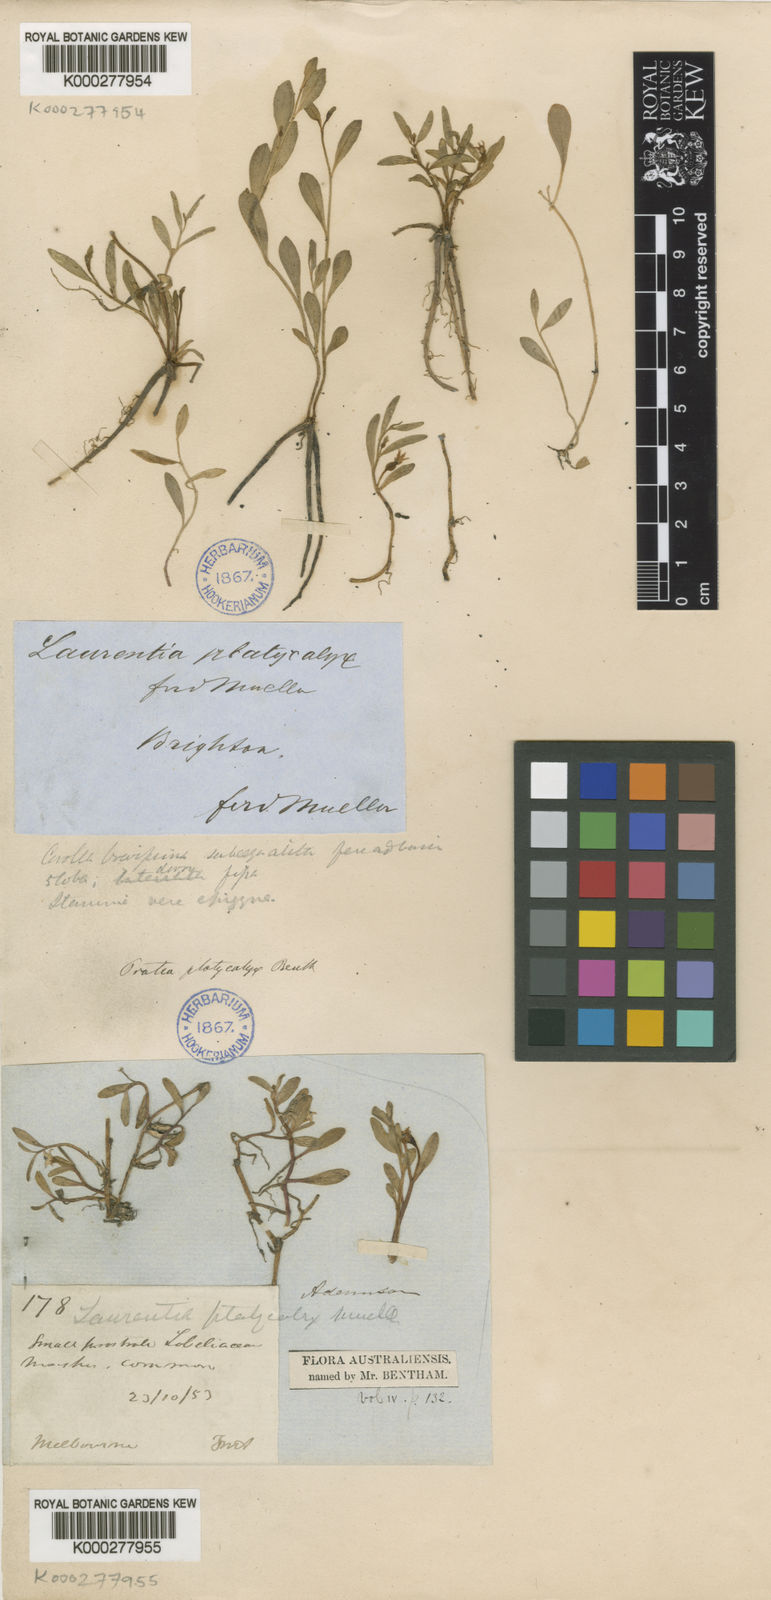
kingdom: Plantae
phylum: Tracheophyta
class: Magnoliopsida
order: Asterales
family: Campanulaceae
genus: Lobelia
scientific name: Lobelia irrigua
